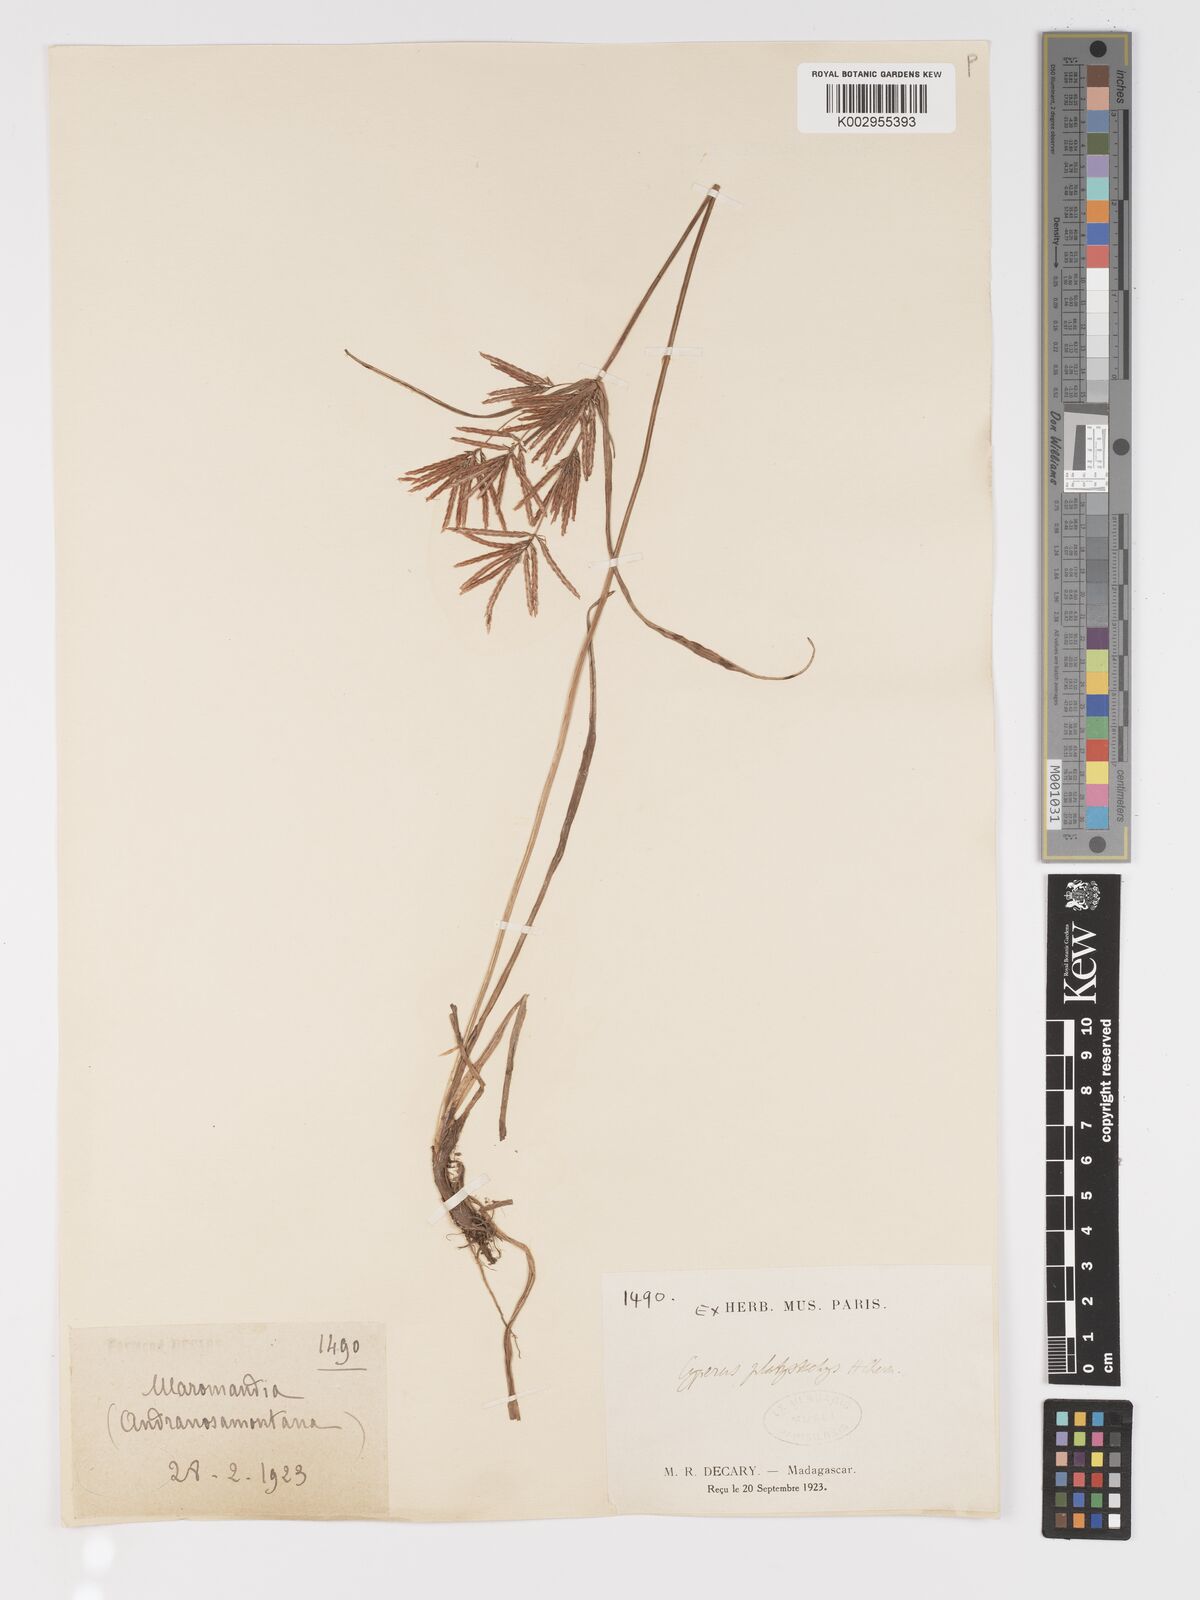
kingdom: Plantae
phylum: Tracheophyta
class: Liliopsida
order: Poales
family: Cyperaceae
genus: Cyperus
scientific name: Cyperus tuberosus
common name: Nut grass
